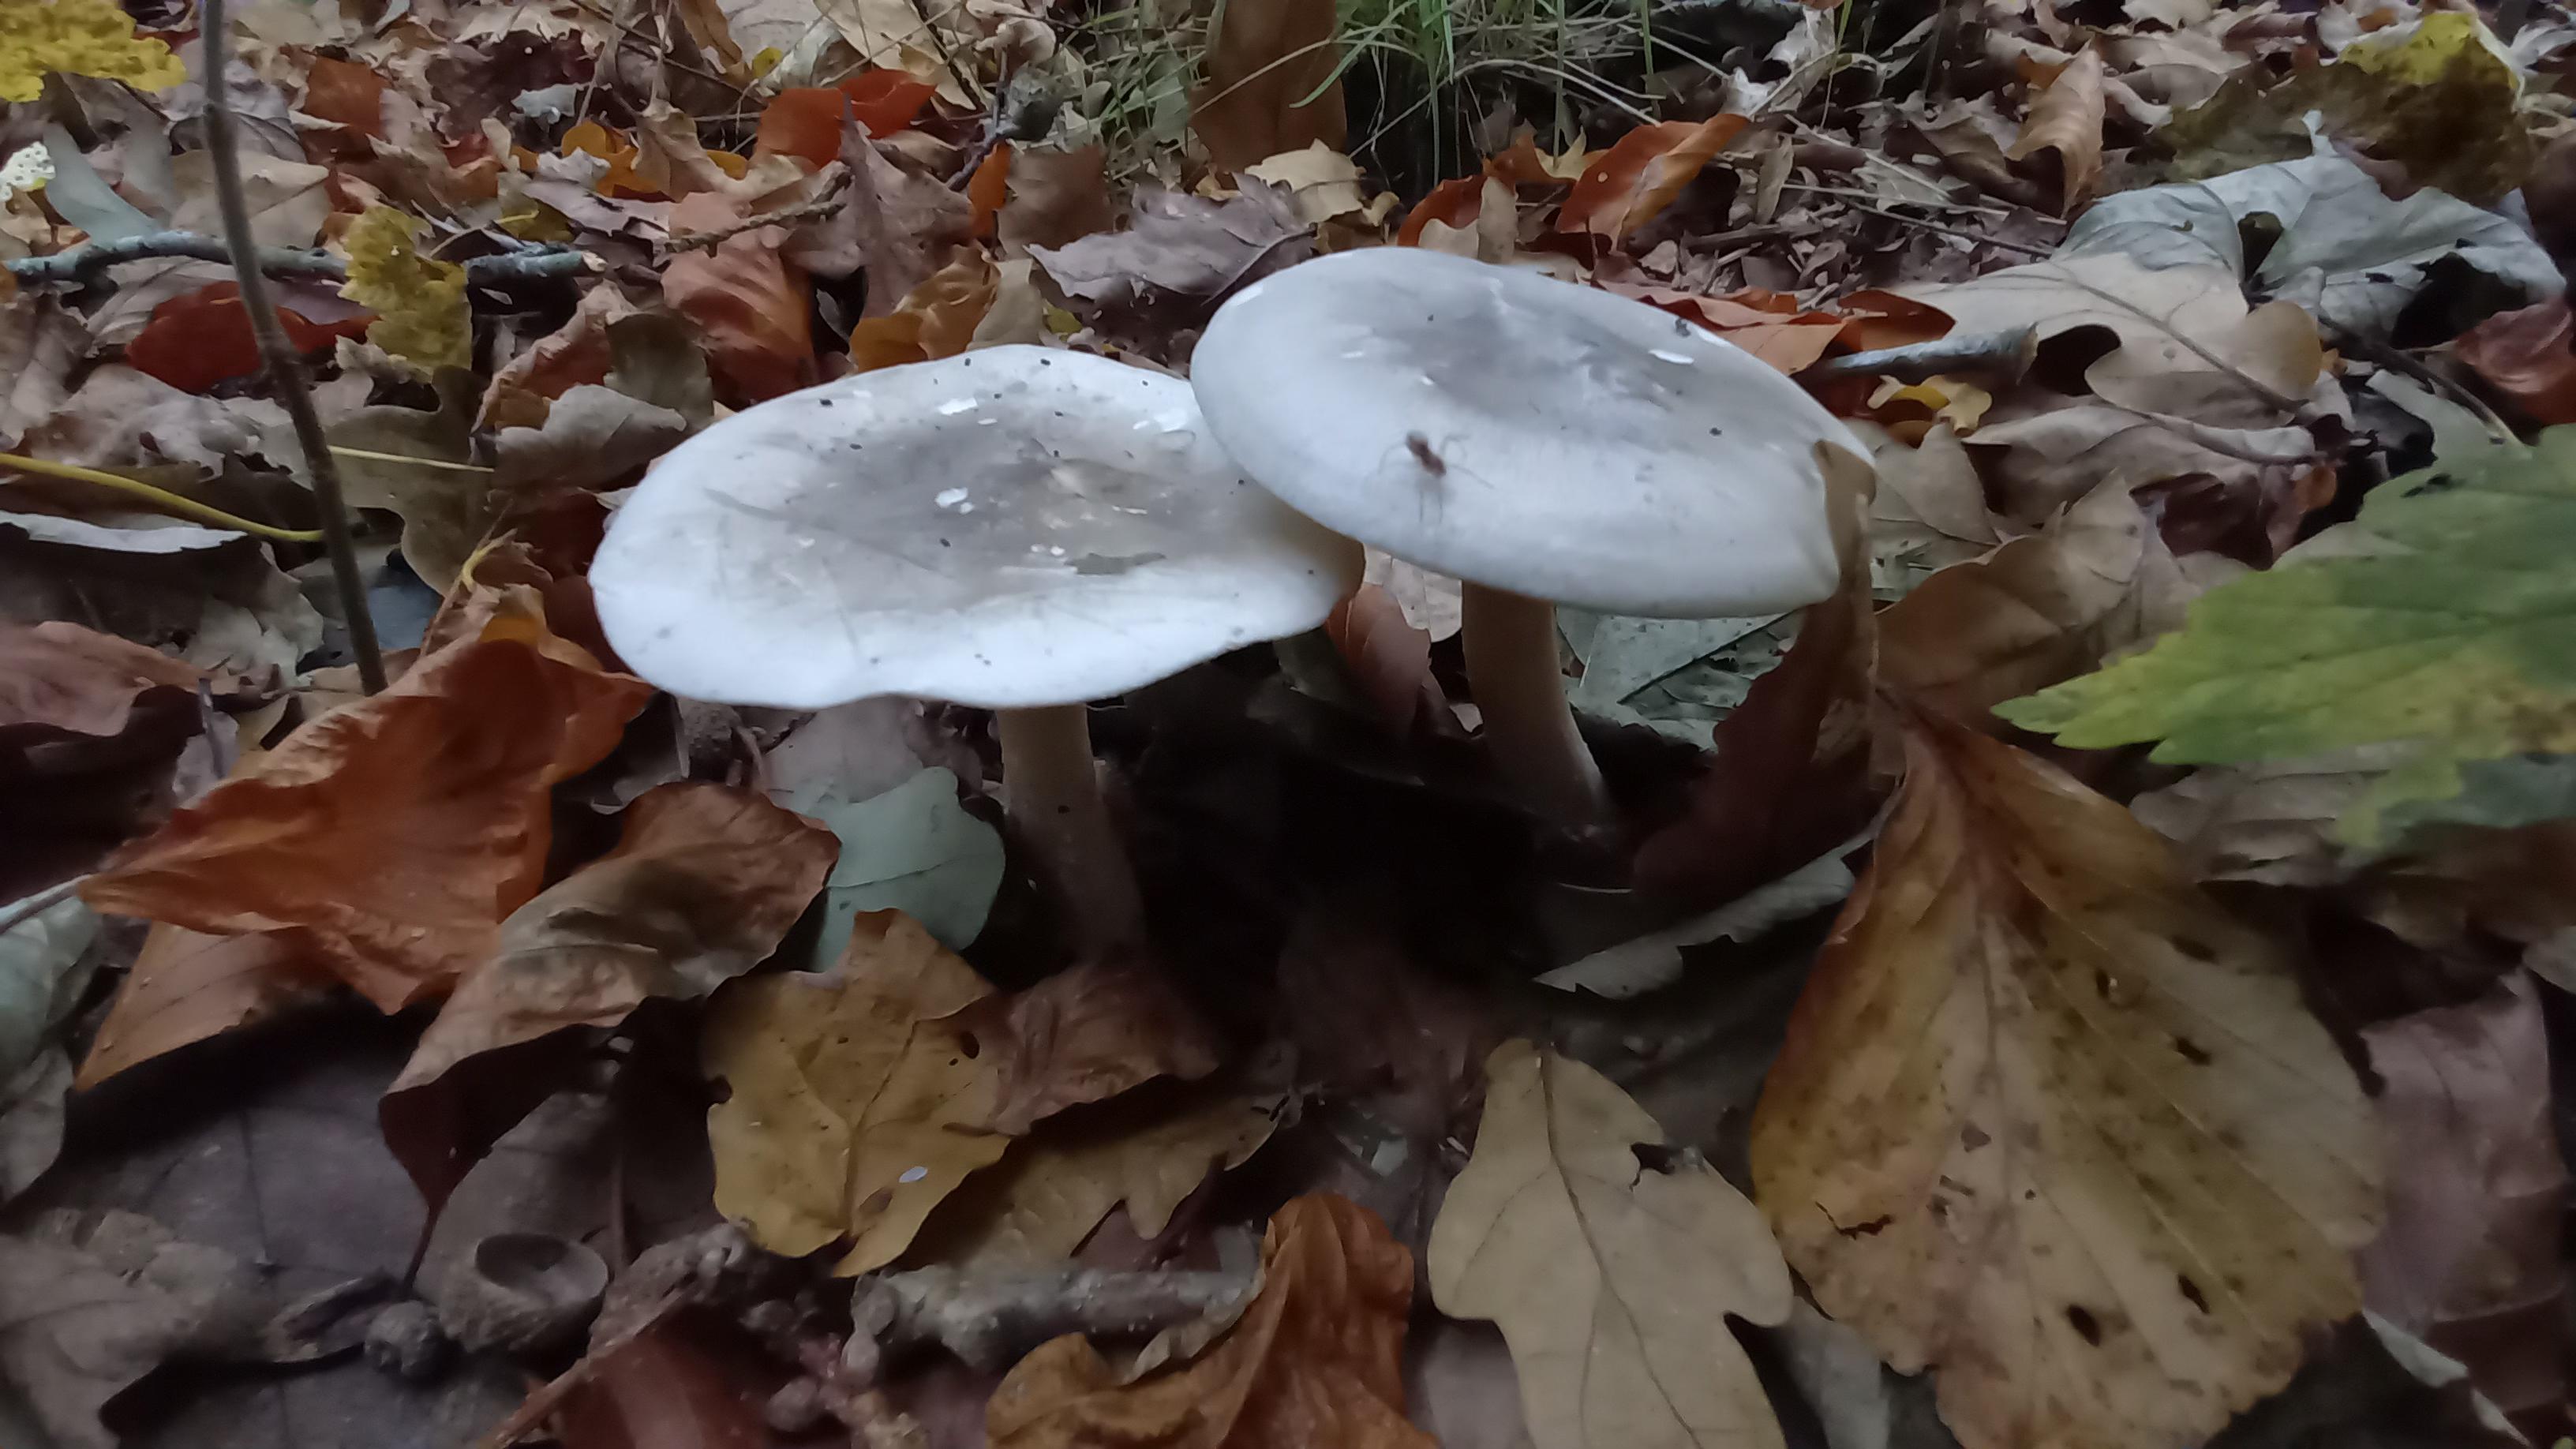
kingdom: Fungi
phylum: Basidiomycota
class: Agaricomycetes
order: Agaricales
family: Tricholomataceae
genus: Clitocybe
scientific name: Clitocybe nebularis
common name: tåge-tragthat
